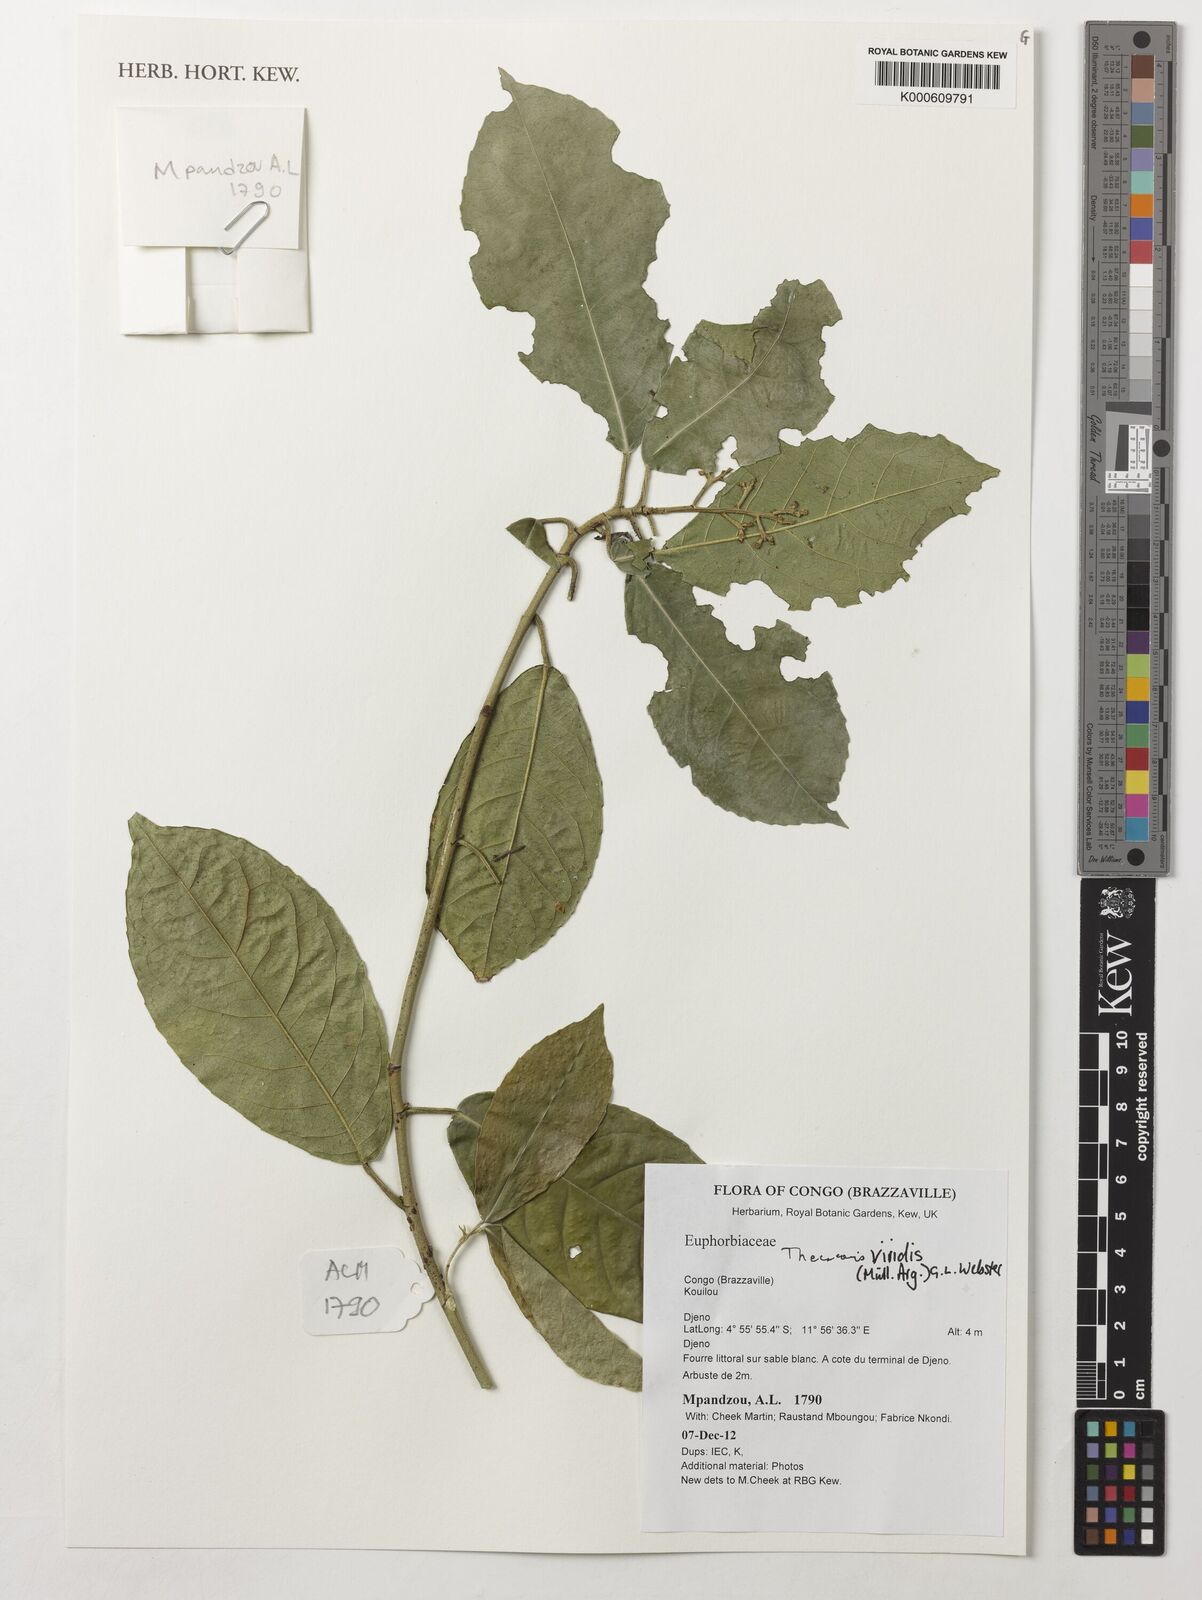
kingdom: Plantae
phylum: Tracheophyta
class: Magnoliopsida
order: Malpighiales
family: Phyllanthaceae
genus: Thecacoris
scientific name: Thecacoris viridis
